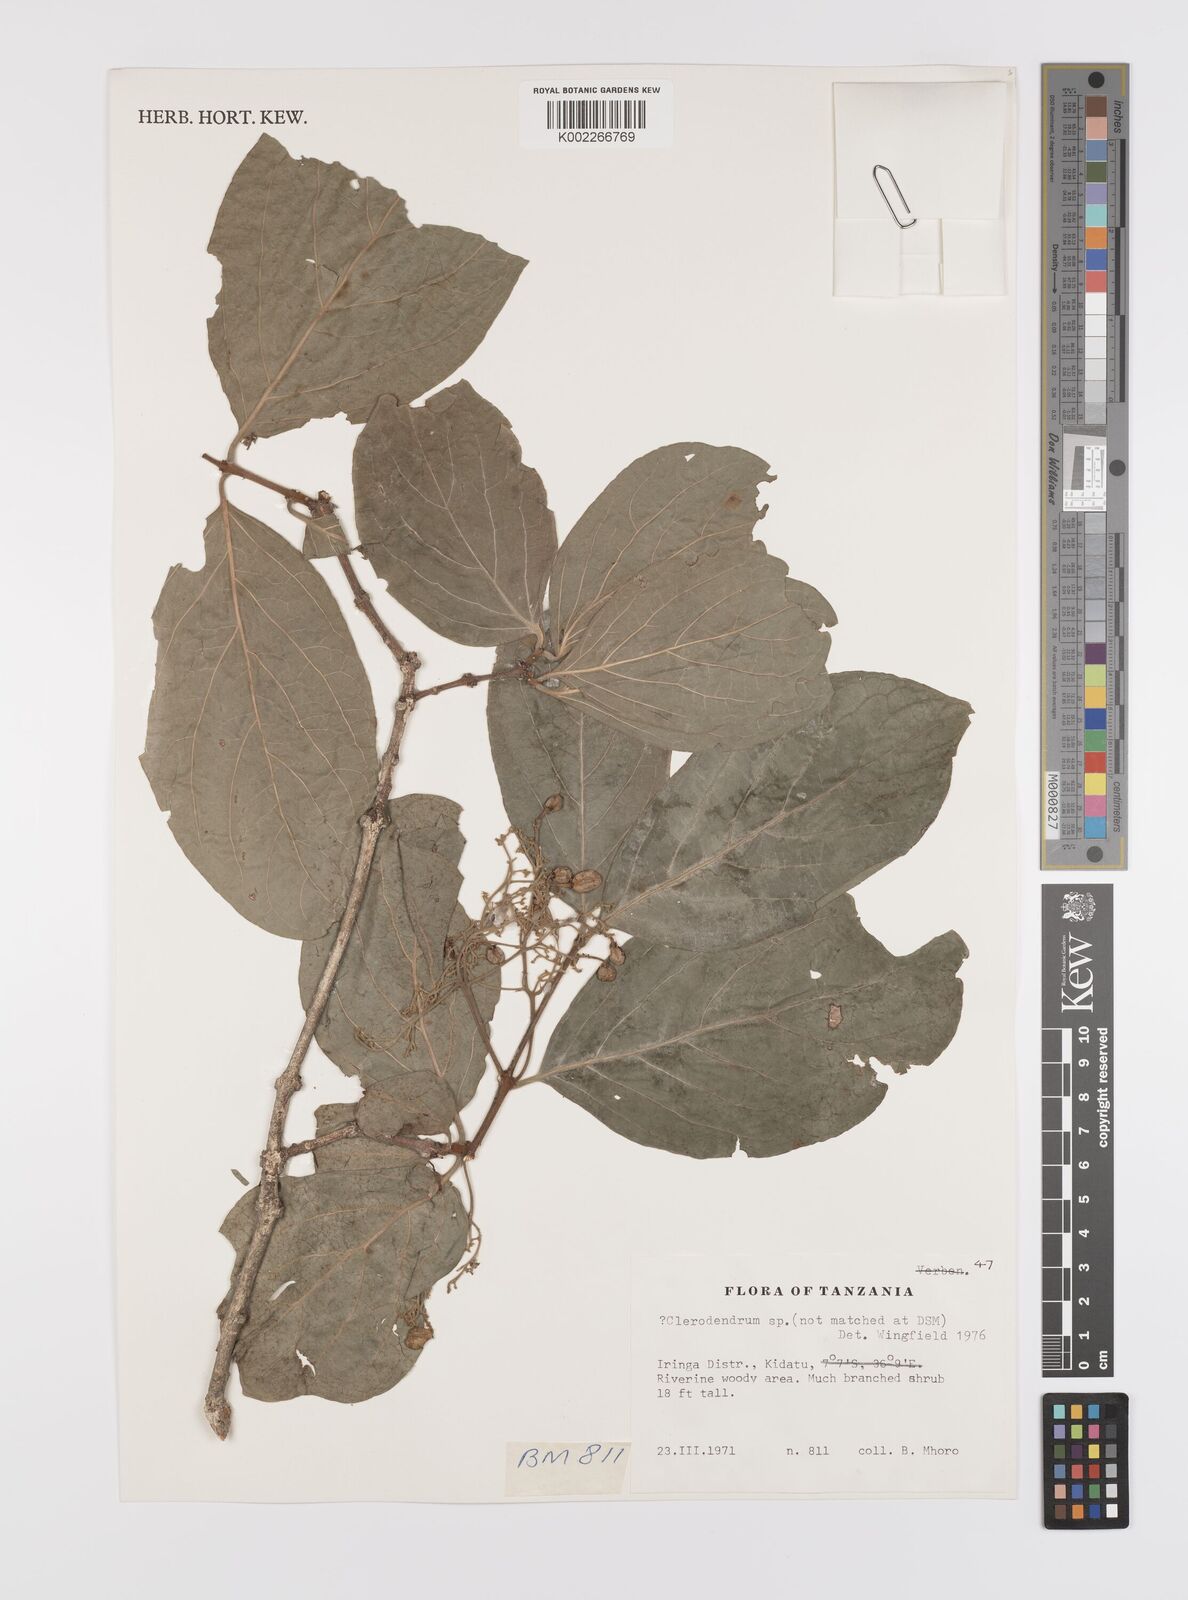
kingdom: Plantae
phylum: Tracheophyta
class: Magnoliopsida
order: Celastrales
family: Celastraceae
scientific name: Celastraceae
